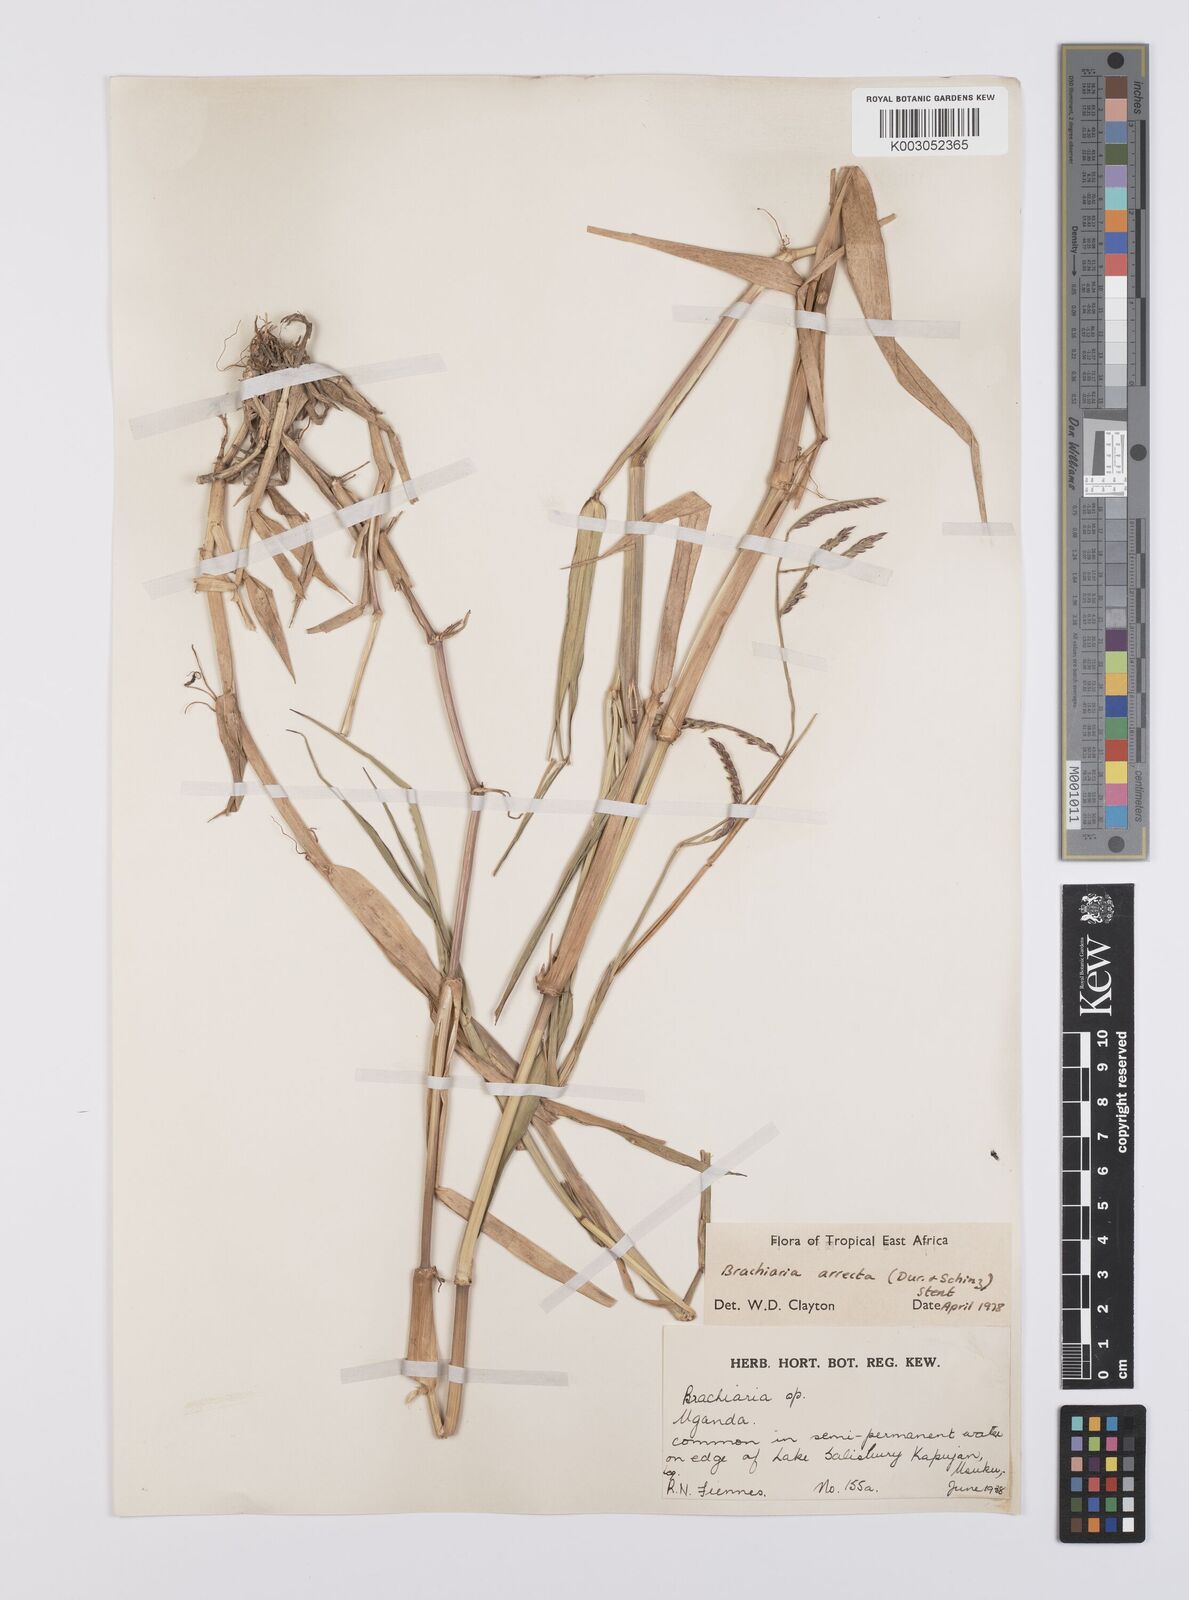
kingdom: Plantae
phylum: Tracheophyta
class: Liliopsida
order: Poales
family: Poaceae
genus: Urochloa
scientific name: Urochloa arrecta
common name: African signalgrass
